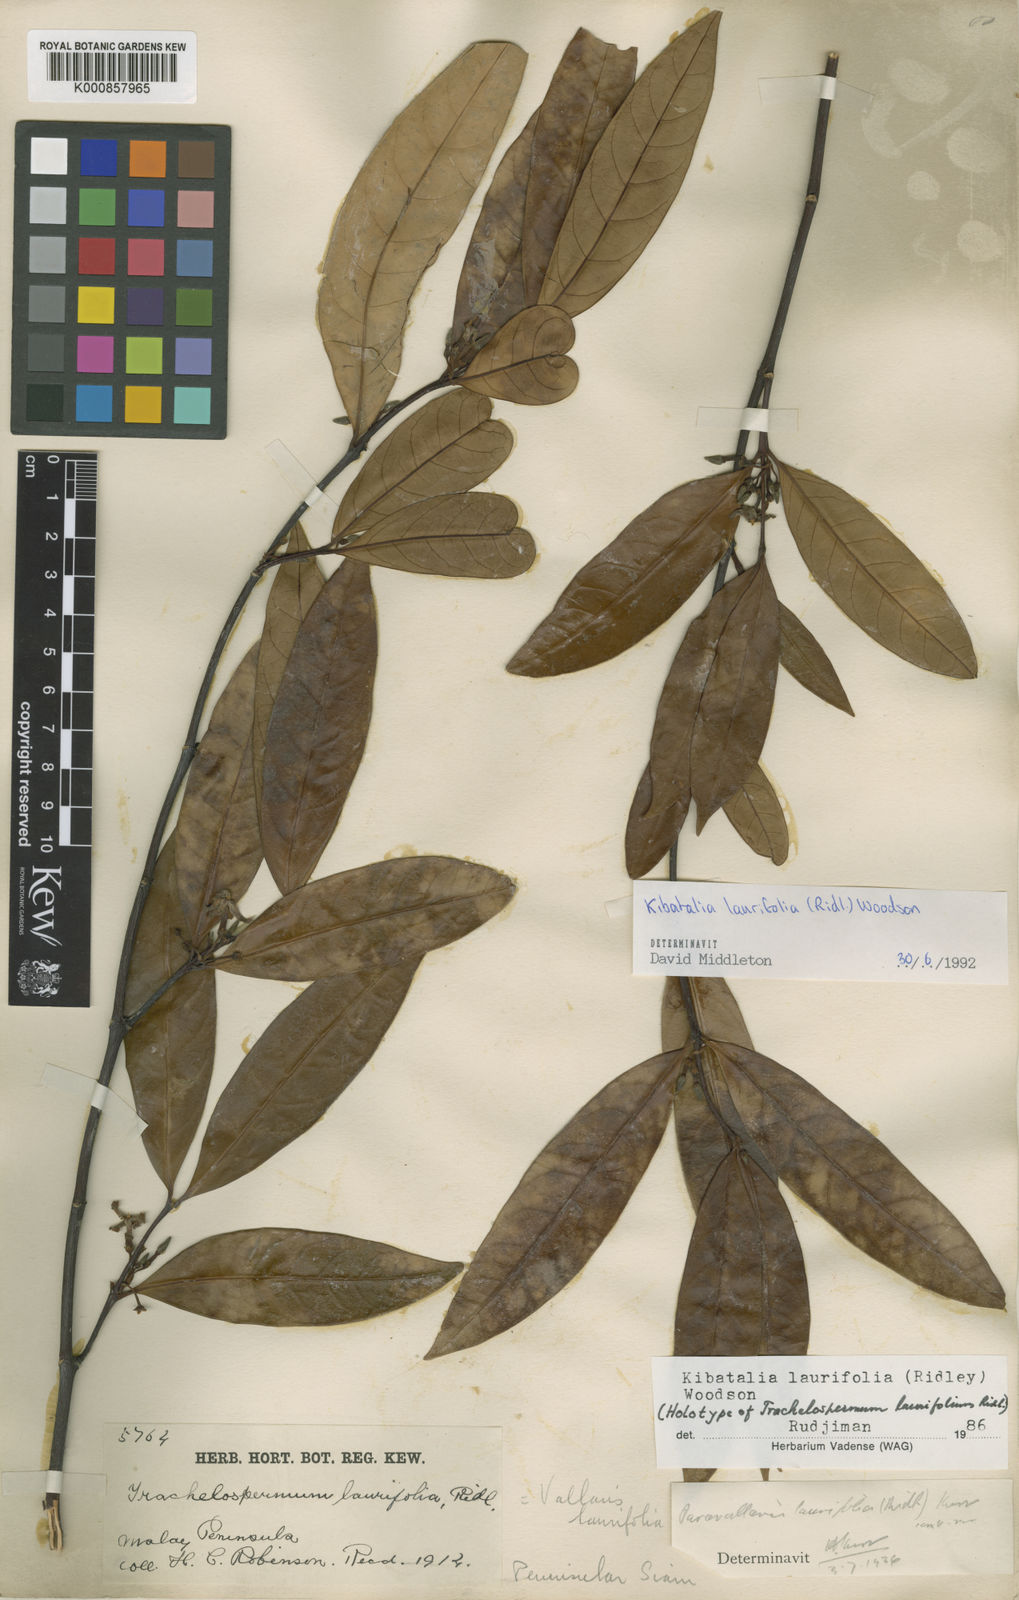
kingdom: Plantae
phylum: Tracheophyta
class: Magnoliopsida
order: Gentianales
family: Apocynaceae
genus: Kibatalia
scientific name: Kibatalia laurifolia
